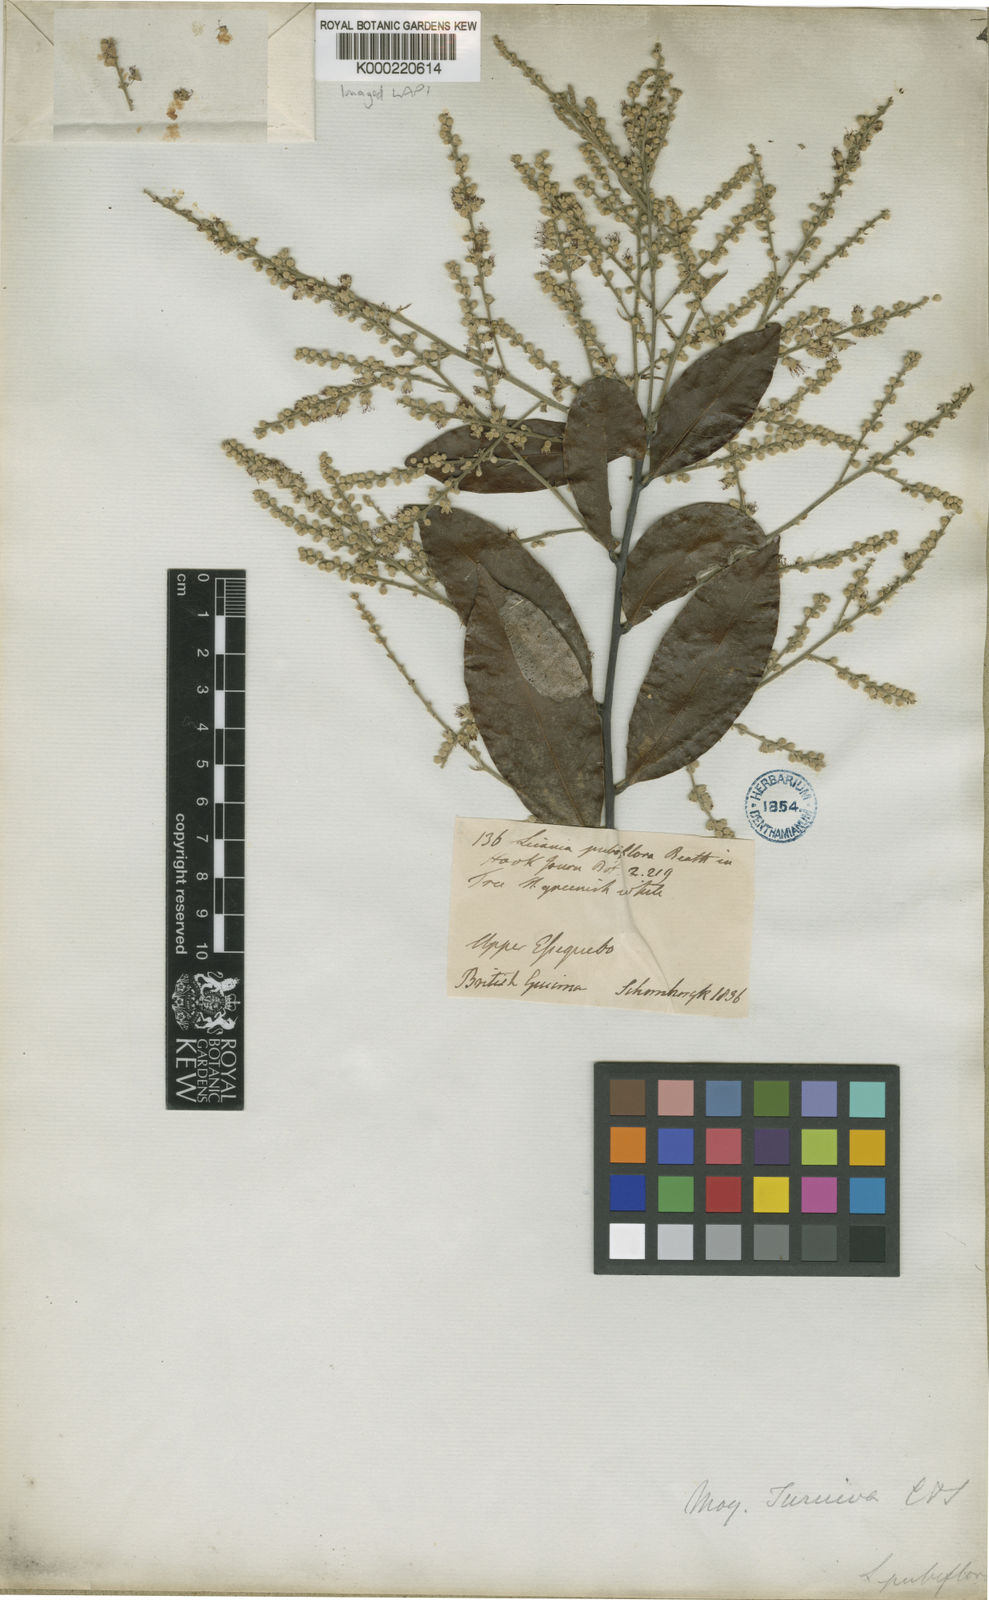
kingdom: Plantae
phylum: Tracheophyta
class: Magnoliopsida
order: Malpighiales
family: Chrysobalanaceae
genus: Leptobalanus
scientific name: Leptobalanus apetalus
